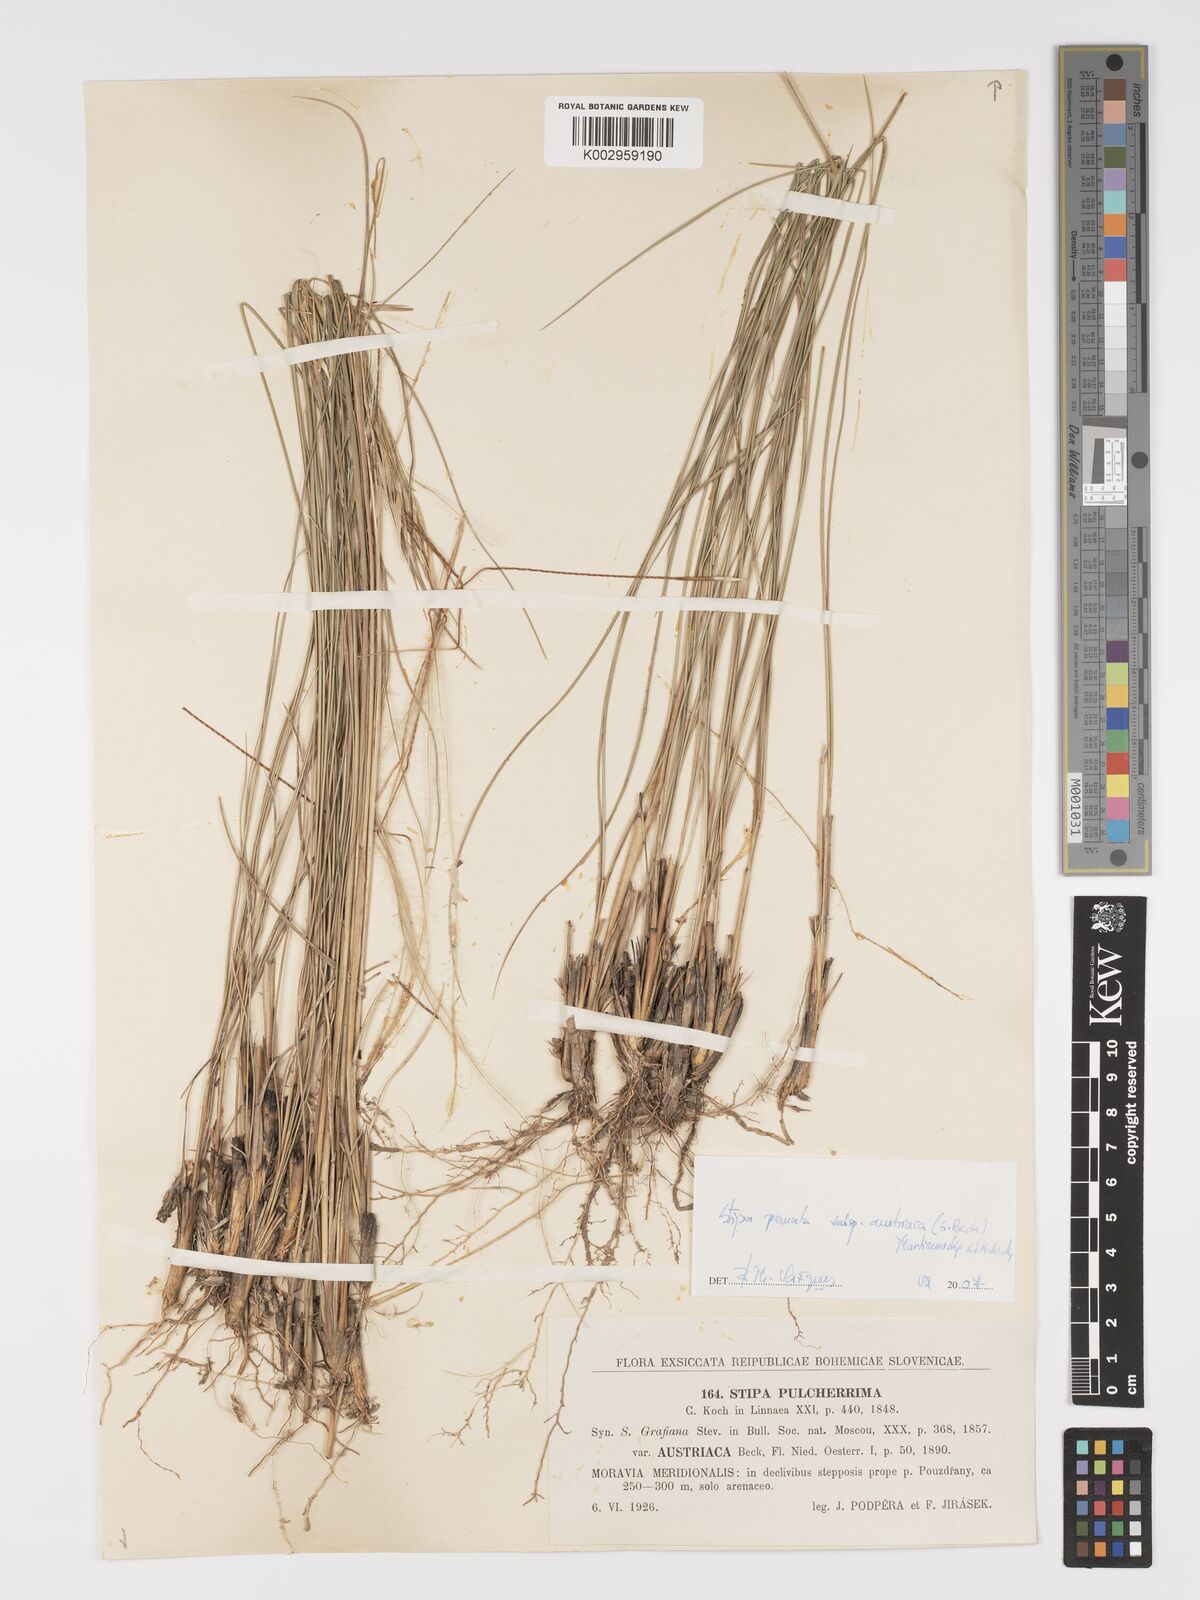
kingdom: Plantae
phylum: Tracheophyta
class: Liliopsida
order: Poales
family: Poaceae
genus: Stipa
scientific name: Stipa pennata
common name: European feather grass
